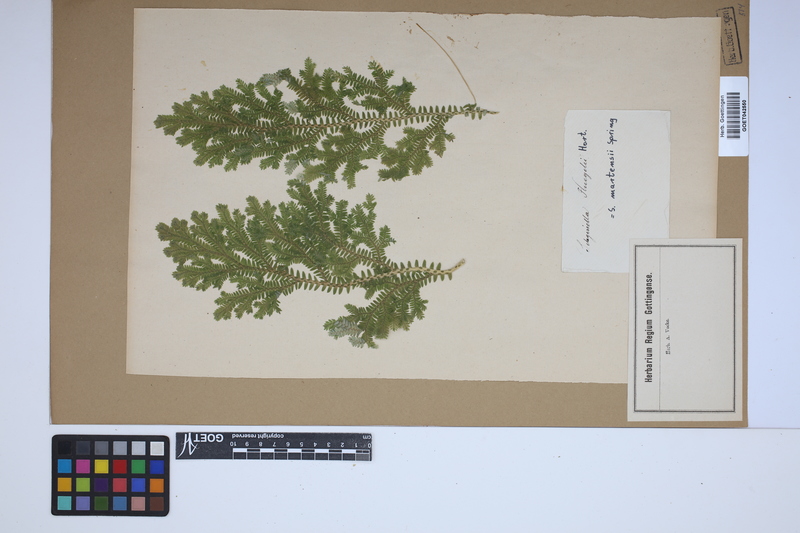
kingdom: Plantae
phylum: Tracheophyta
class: Lycopodiopsida
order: Selaginellales
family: Selaginellaceae
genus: Selaginella
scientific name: Selaginella martensii
